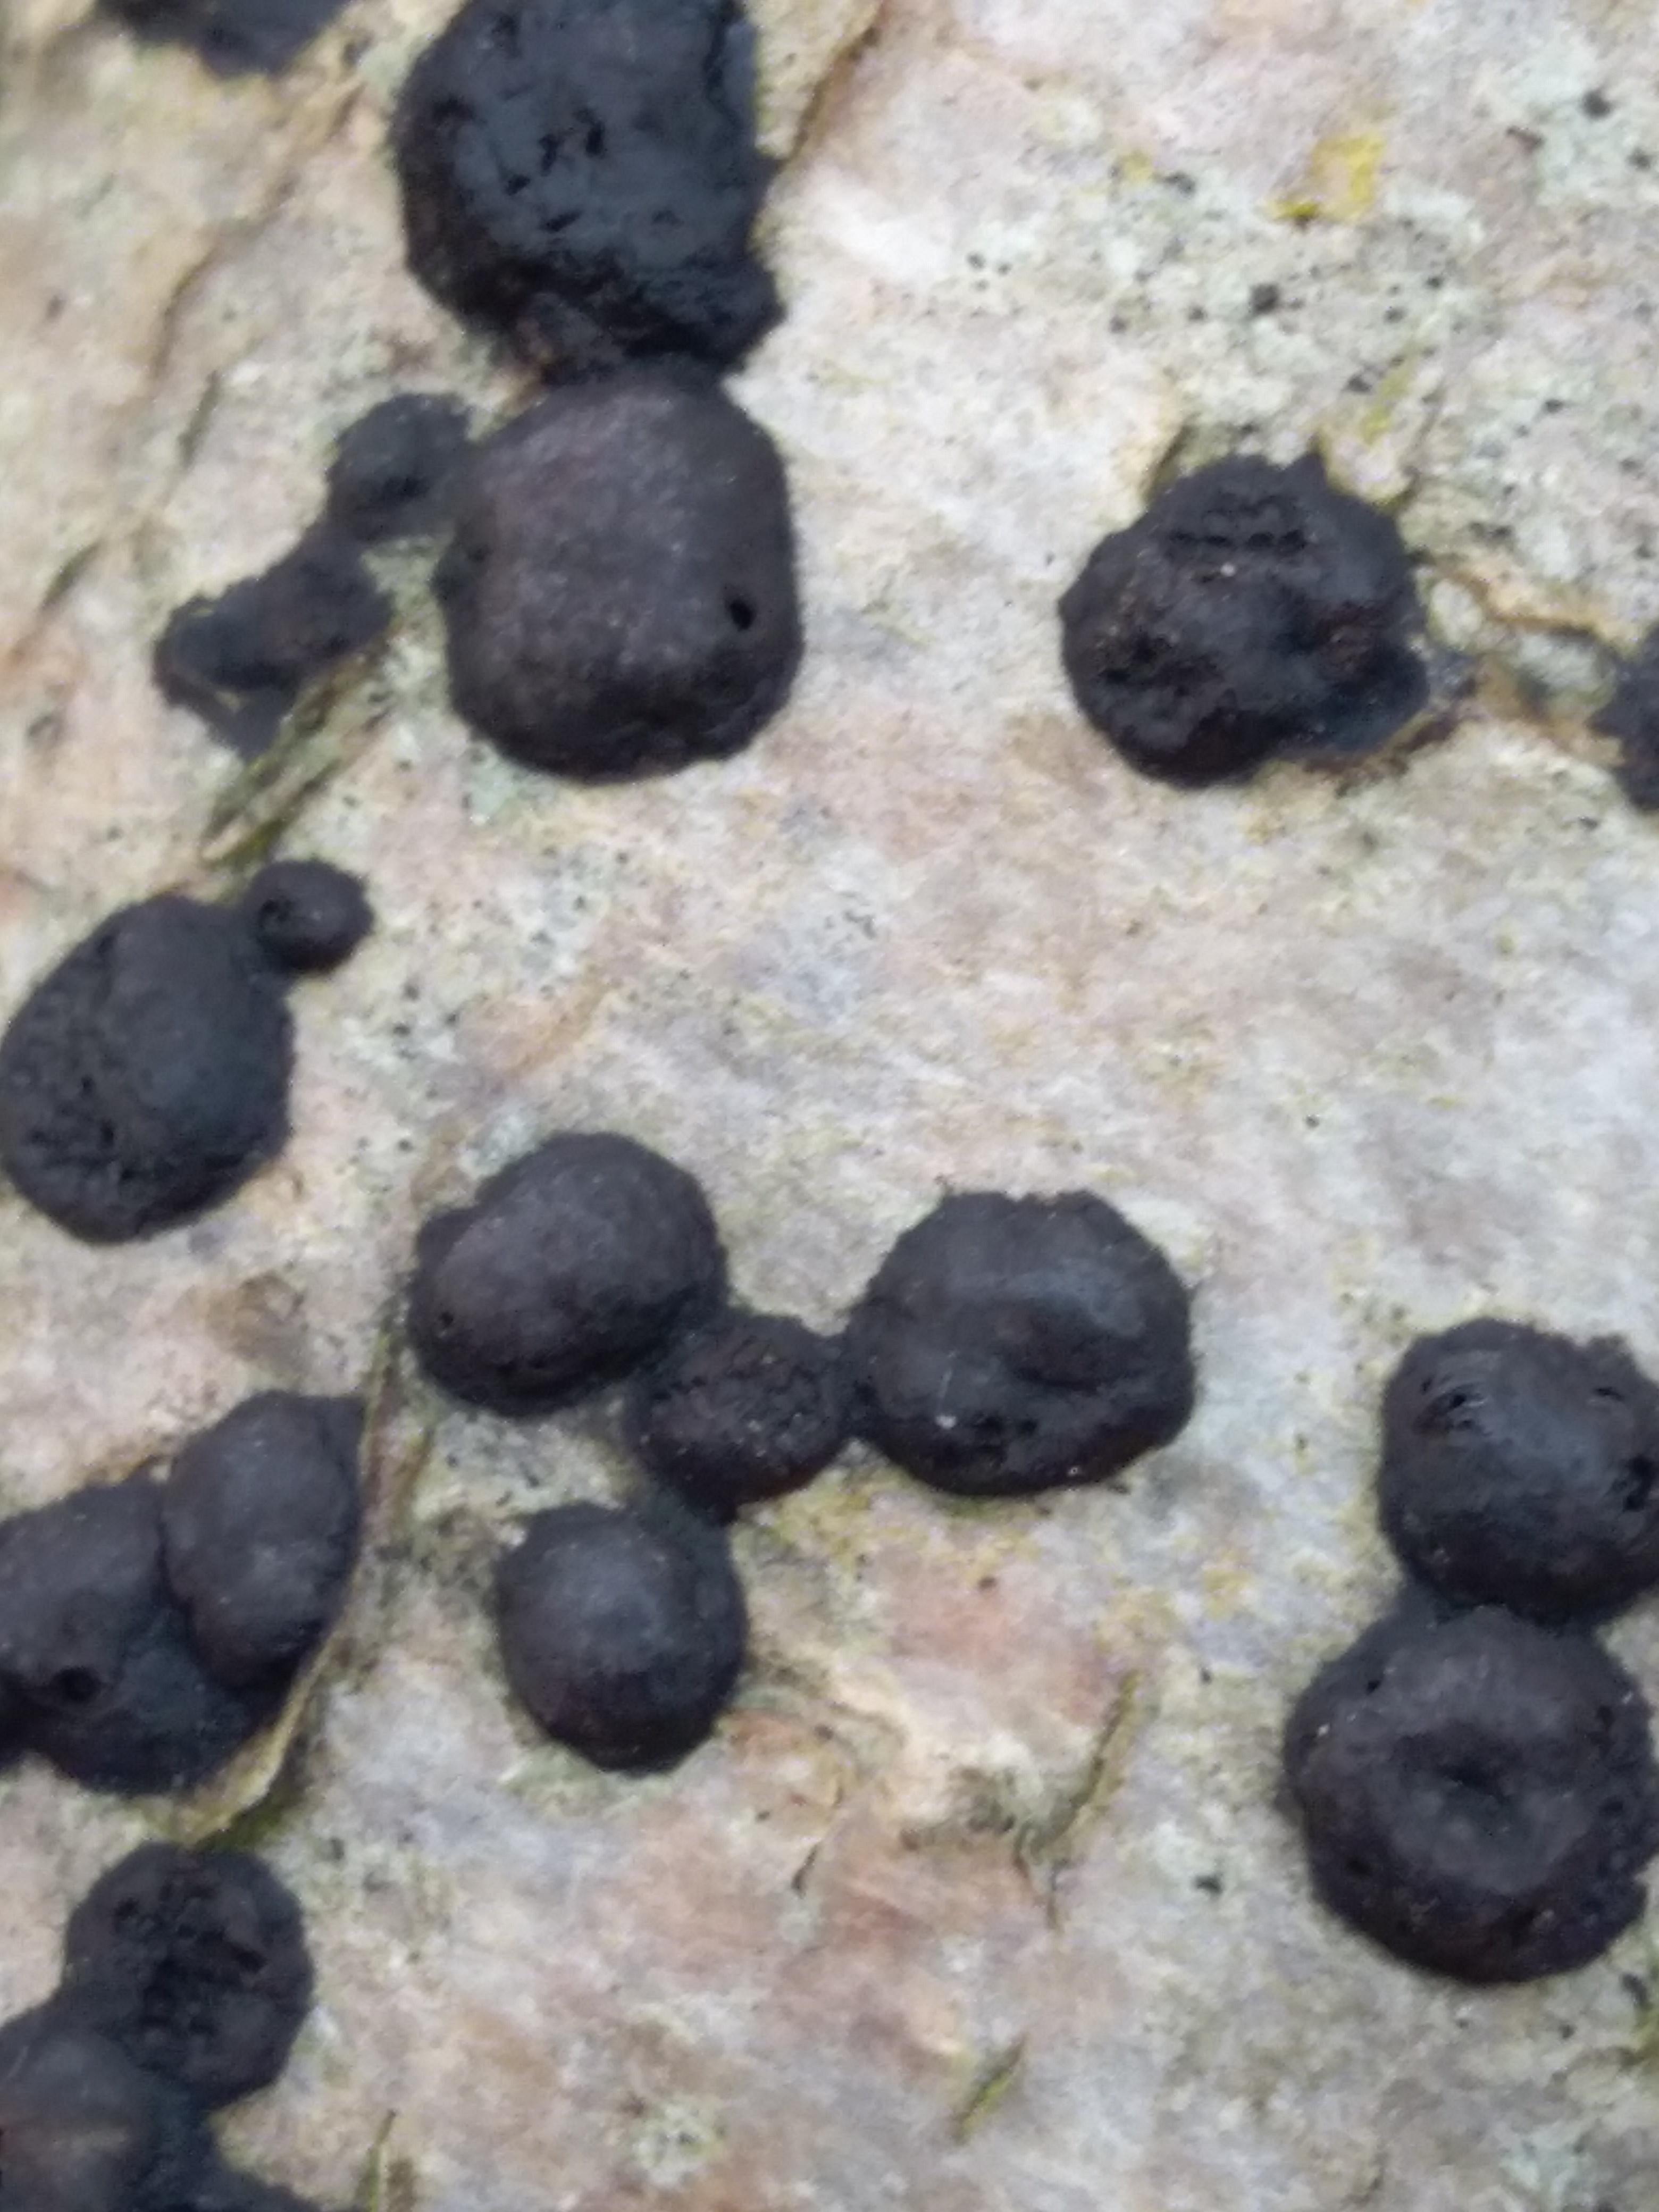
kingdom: Fungi
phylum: Ascomycota
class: Sordariomycetes
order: Xylariales
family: Hypoxylaceae
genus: Hypoxylon
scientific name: Hypoxylon fuscum
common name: kegleformet kulbær
